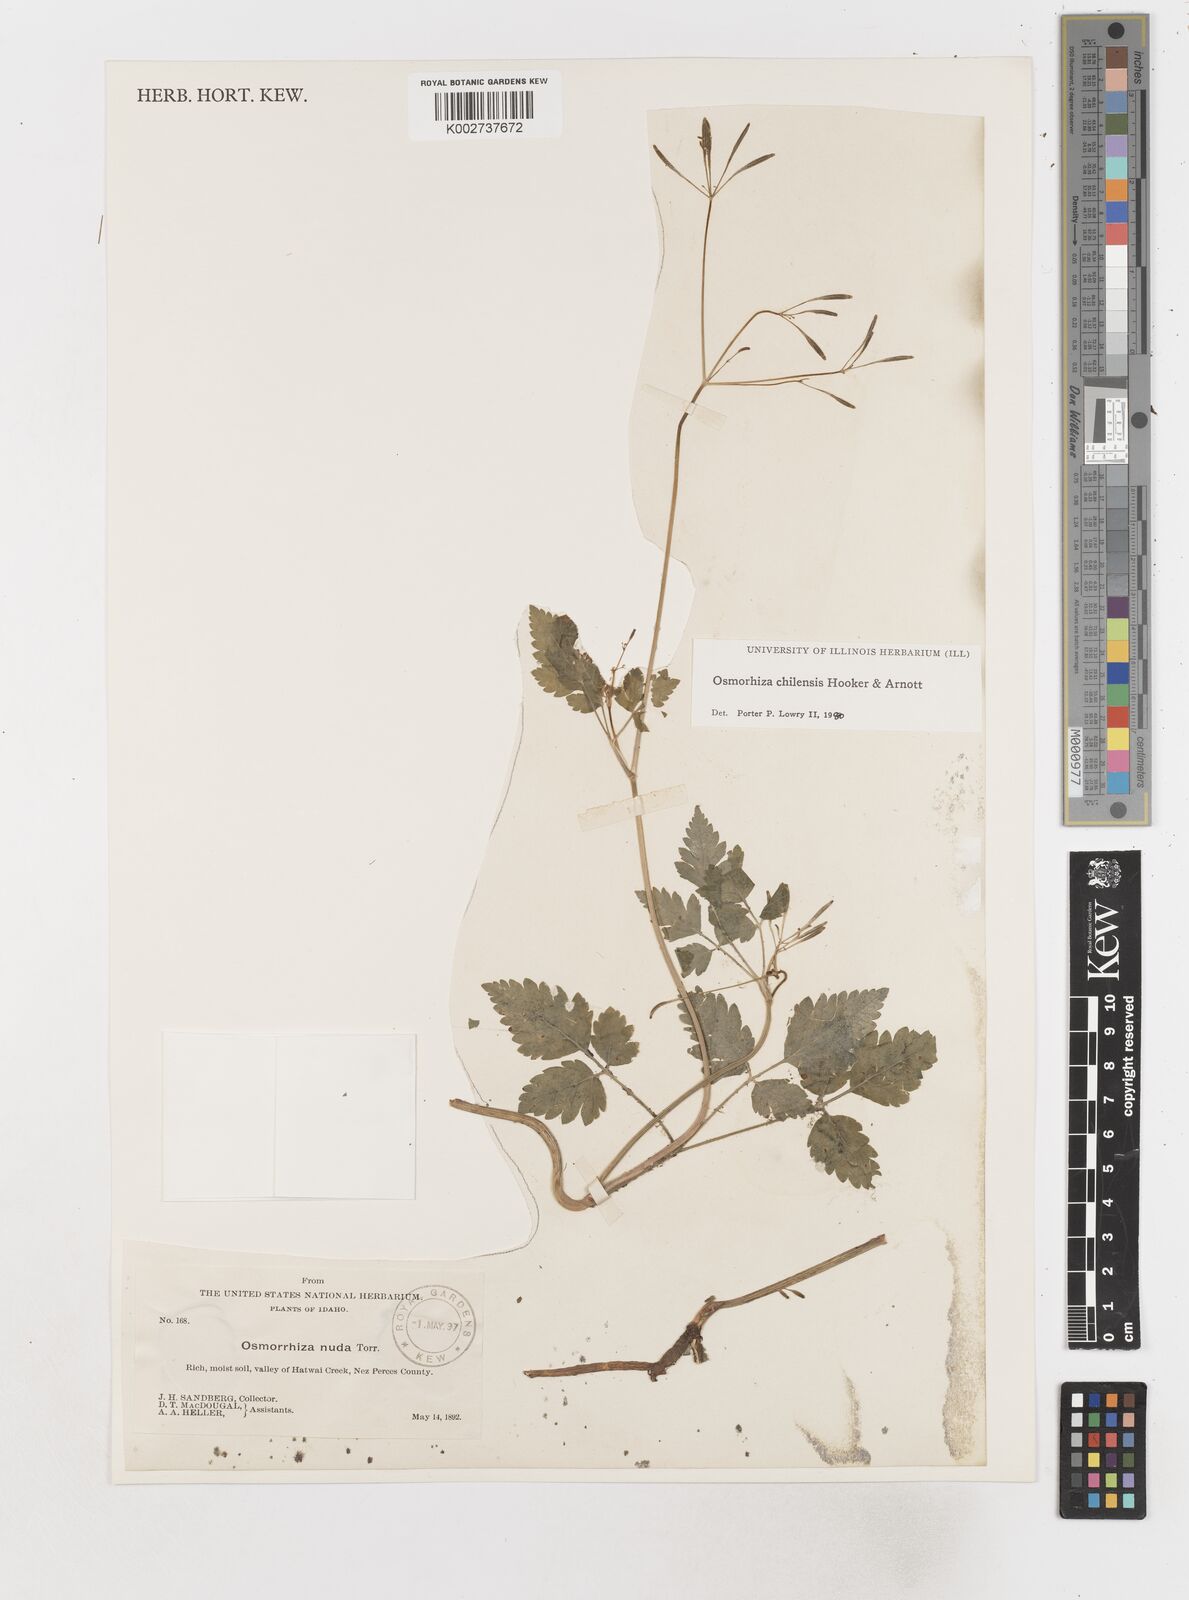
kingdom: Plantae
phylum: Tracheophyta
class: Magnoliopsida
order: Apiales
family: Apiaceae
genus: Osmorhiza
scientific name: Osmorhiza berteroi
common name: Mountain sweet cicely
